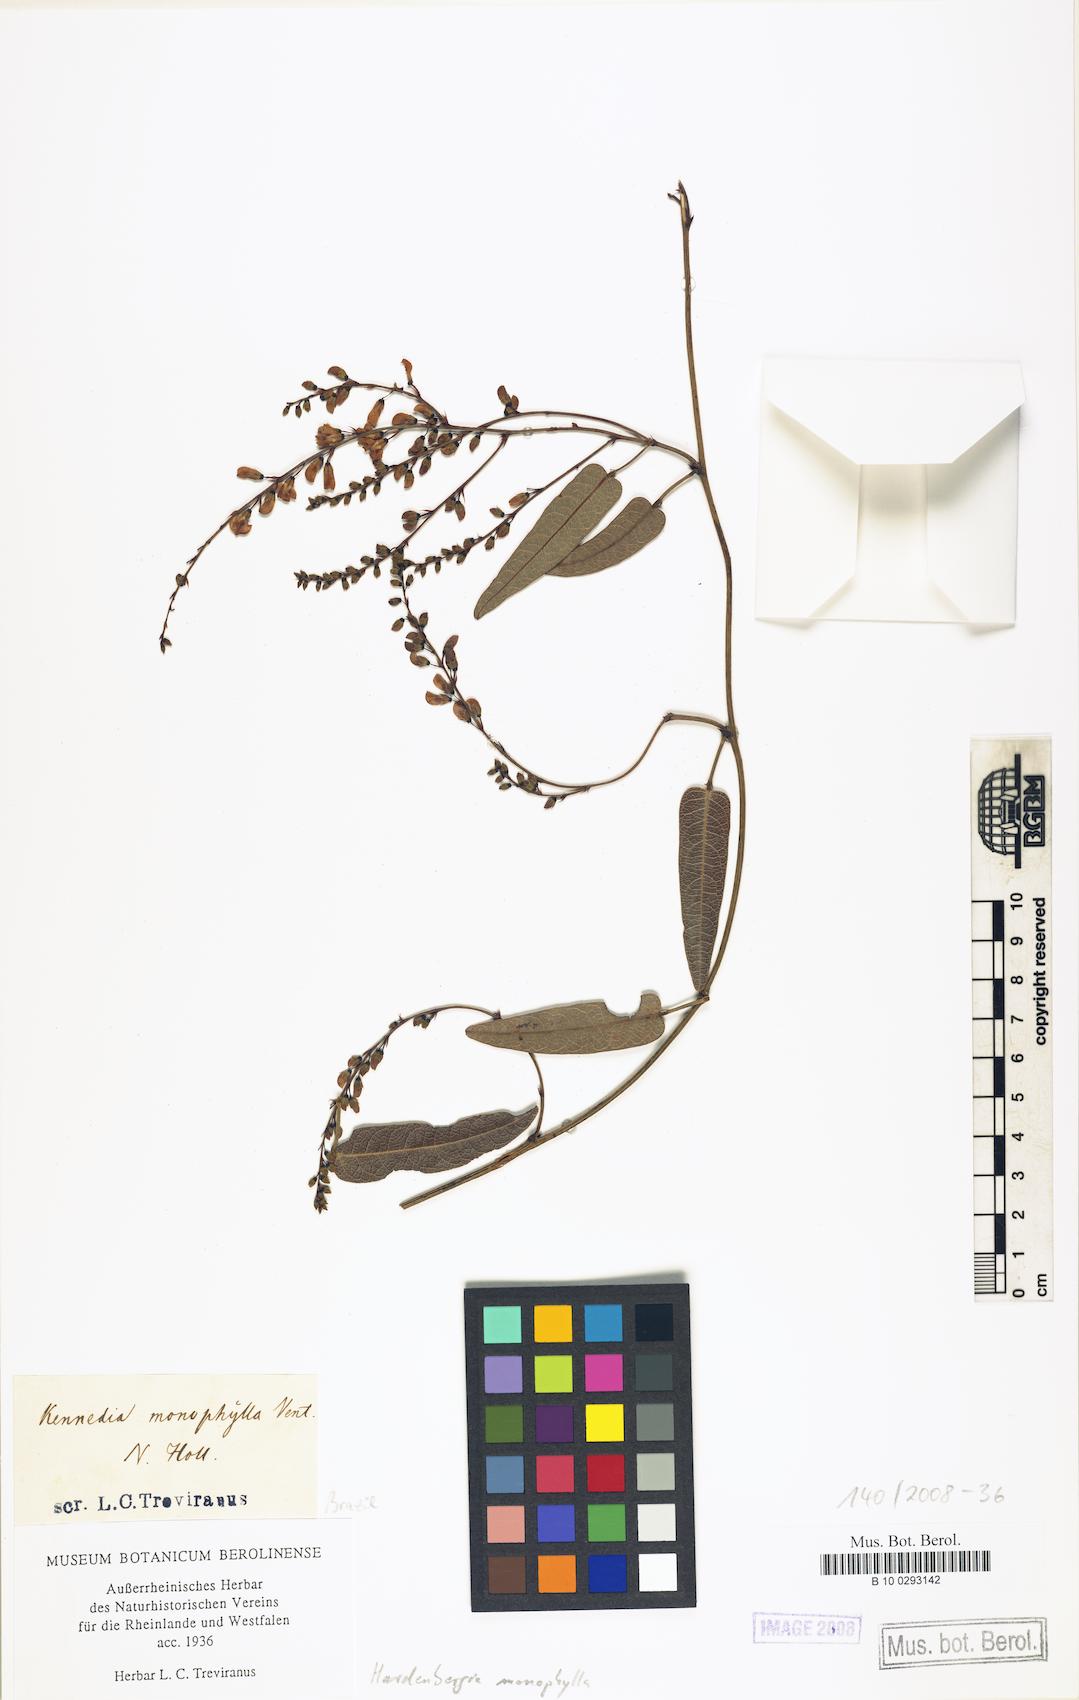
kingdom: Plantae
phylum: Tracheophyta
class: Magnoliopsida
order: Fabales
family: Fabaceae
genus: Hardenbergia
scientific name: Hardenbergia violacea
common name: Coral-pea
